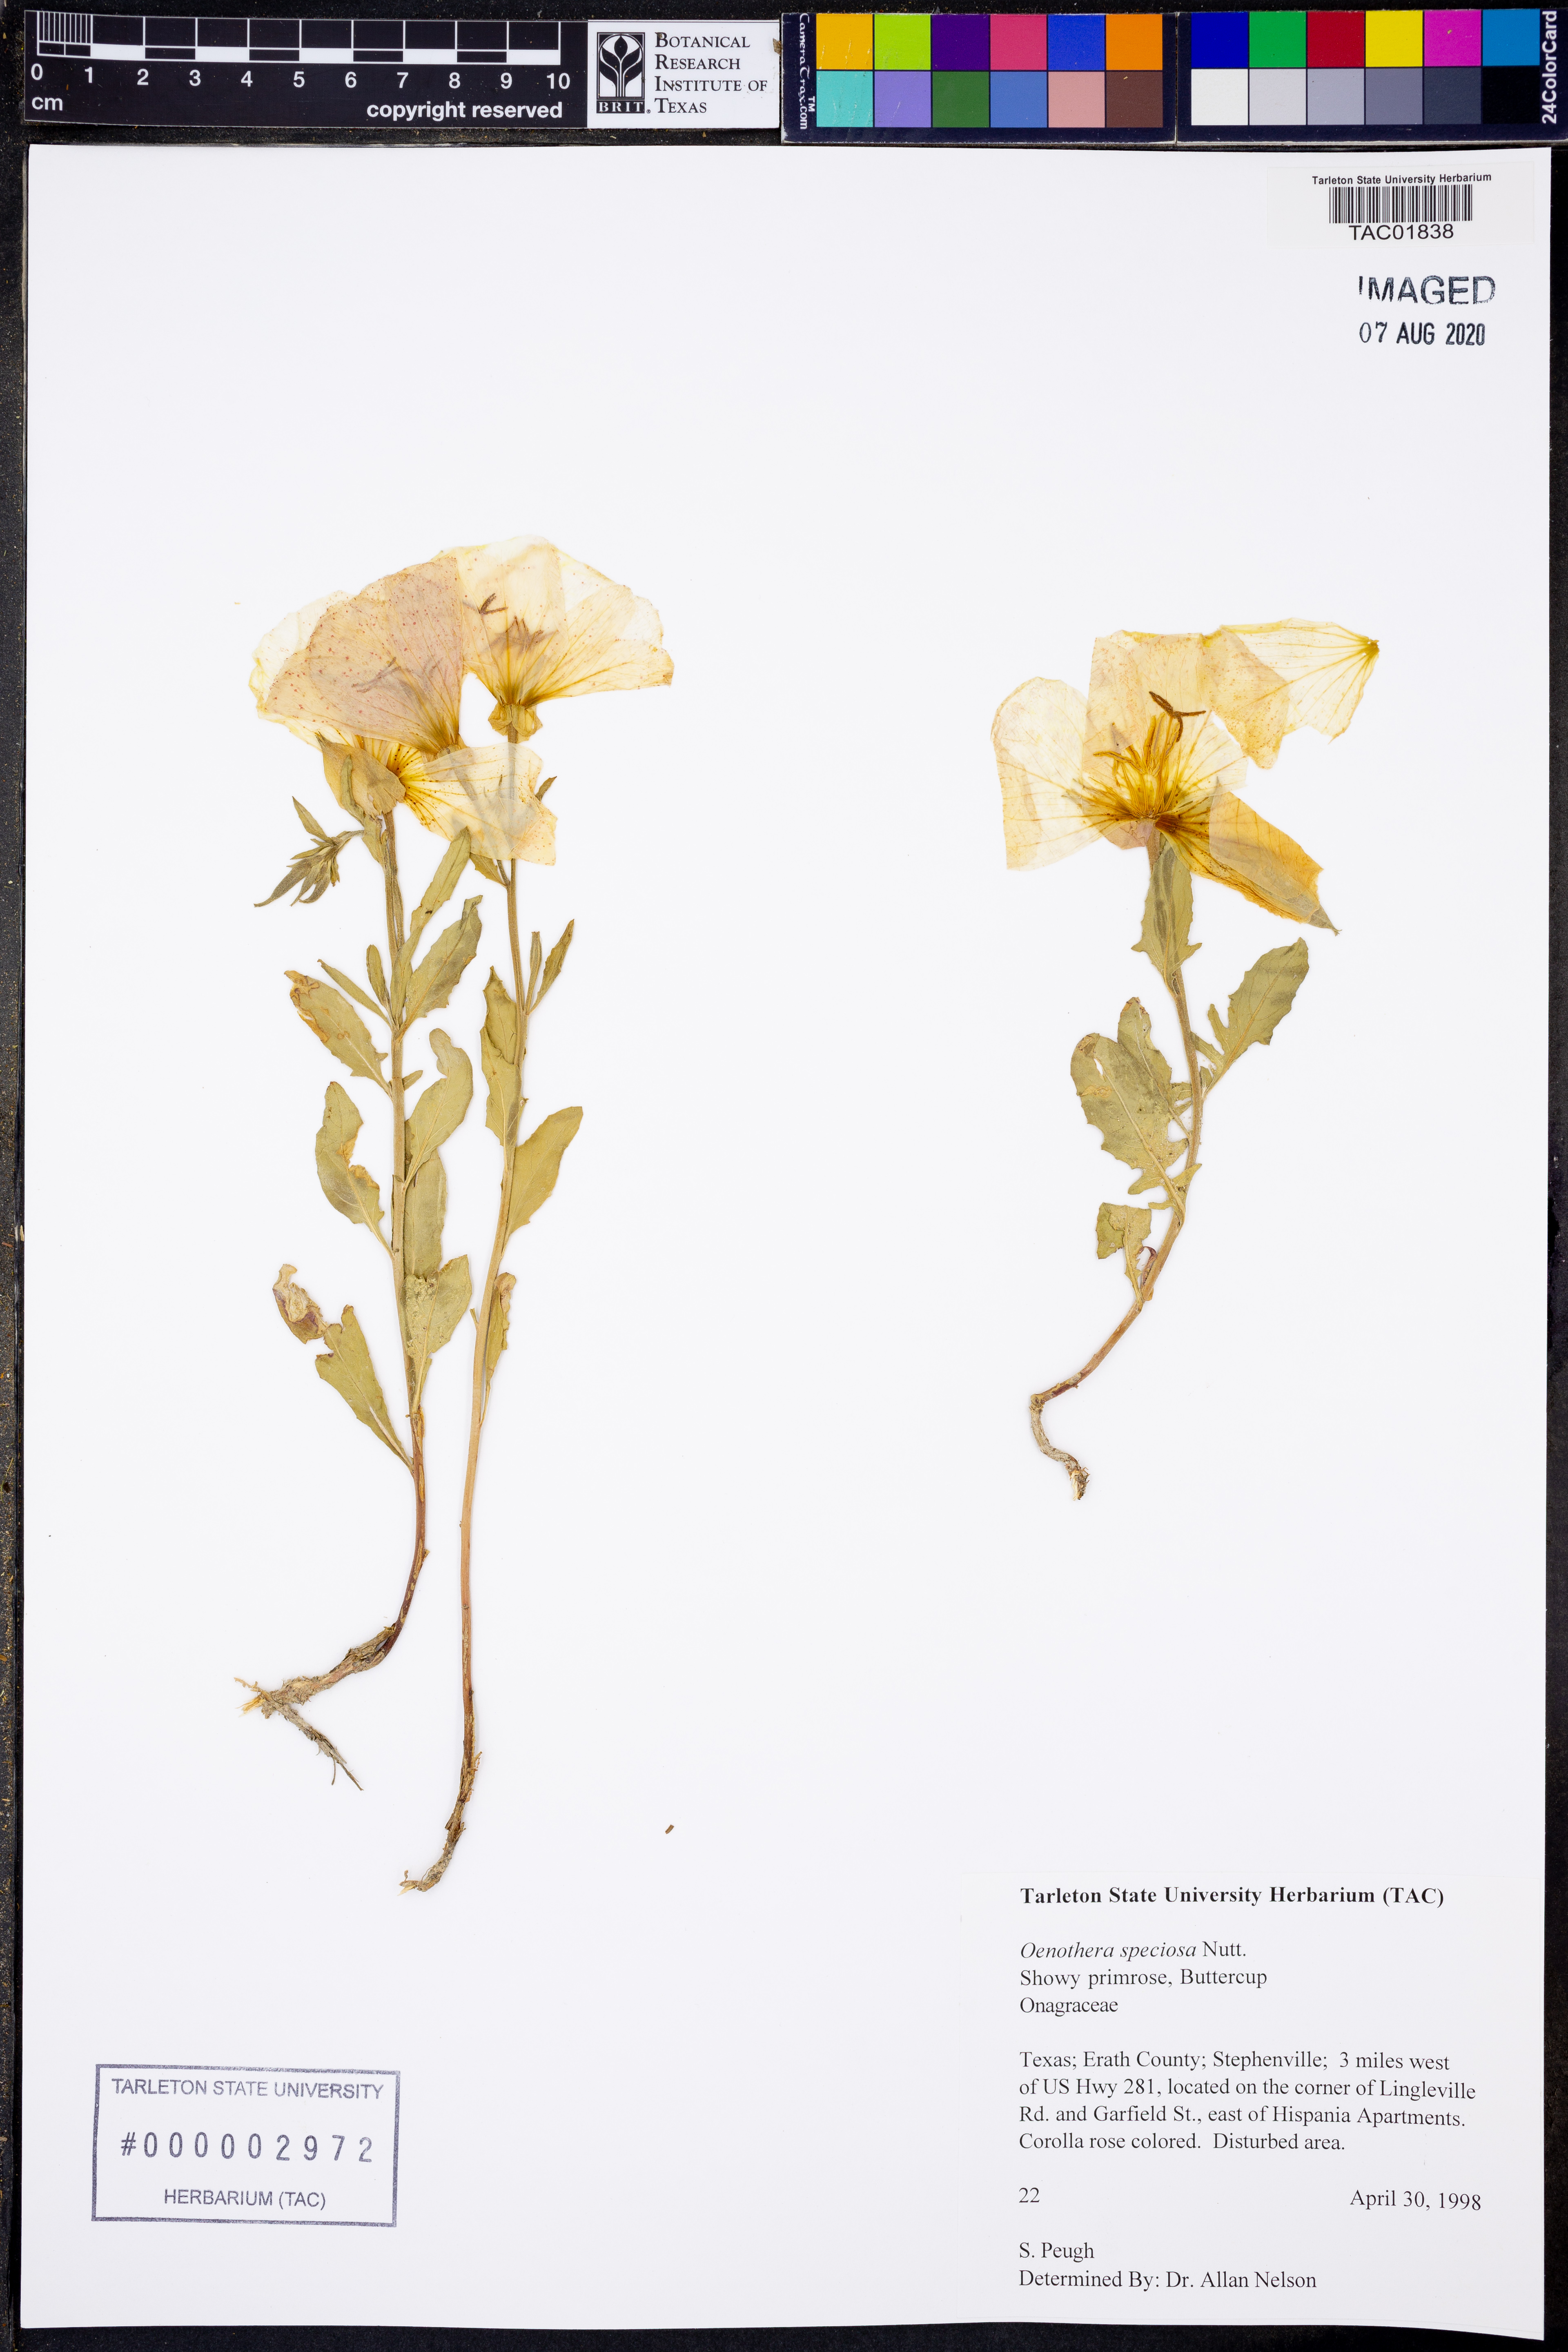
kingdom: Plantae
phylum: Tracheophyta
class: Magnoliopsida
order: Myrtales
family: Onagraceae
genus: Oenothera
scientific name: Oenothera speciosa
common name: White evening-primrose
